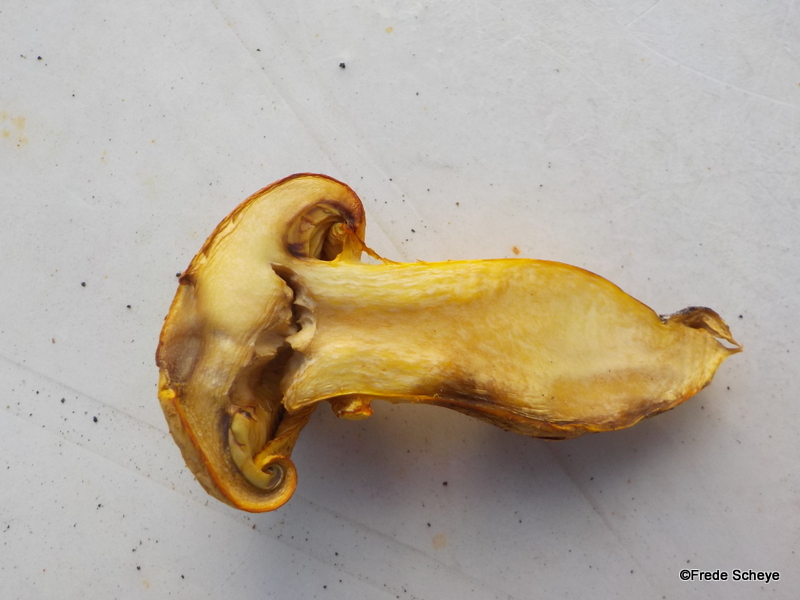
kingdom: Fungi
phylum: Basidiomycota
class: Agaricomycetes
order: Agaricales
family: Hymenogastraceae
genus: Gymnopilus
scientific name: Gymnopilus spectabilis
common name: fibret flammehat
